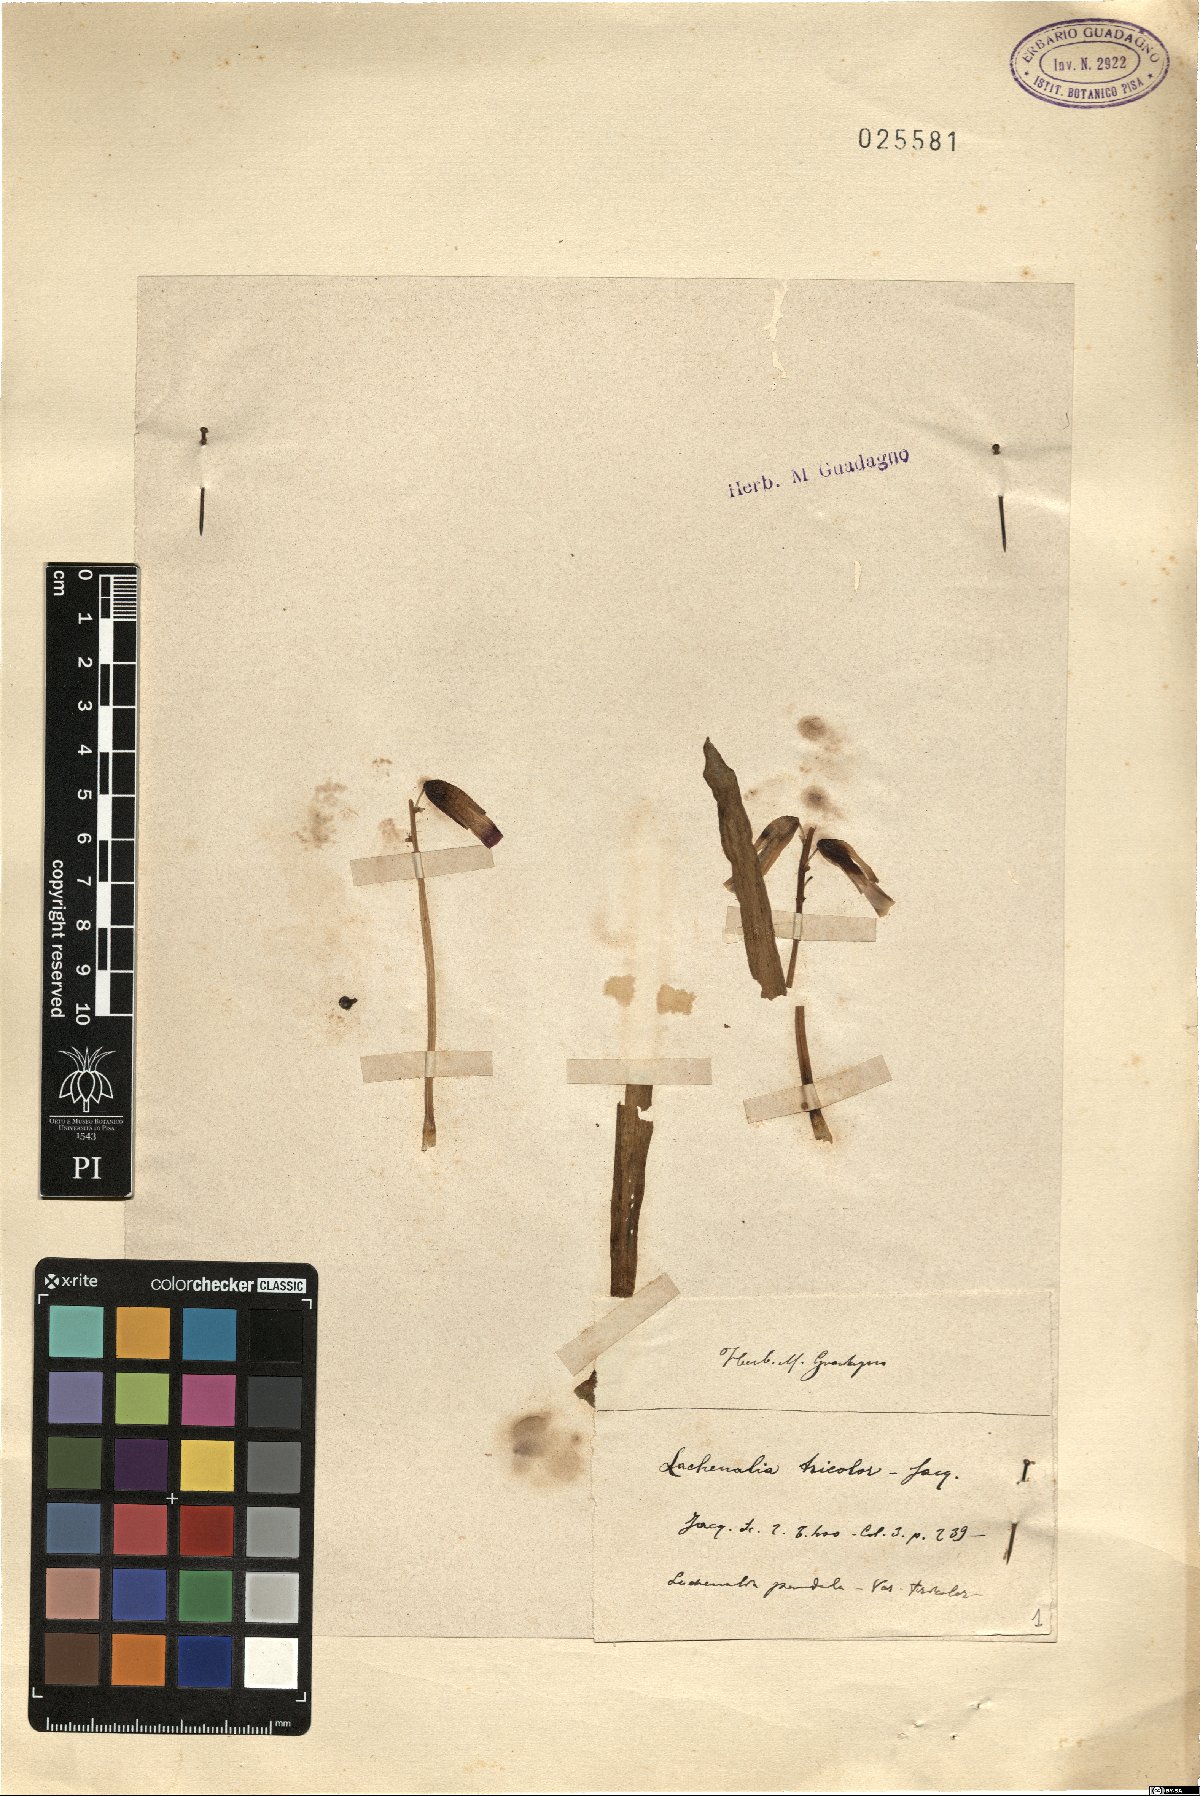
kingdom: Plantae
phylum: Tracheophyta
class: Liliopsida
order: Asparagales
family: Asparagaceae
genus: Lachenalia
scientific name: Lachenalia aloides
